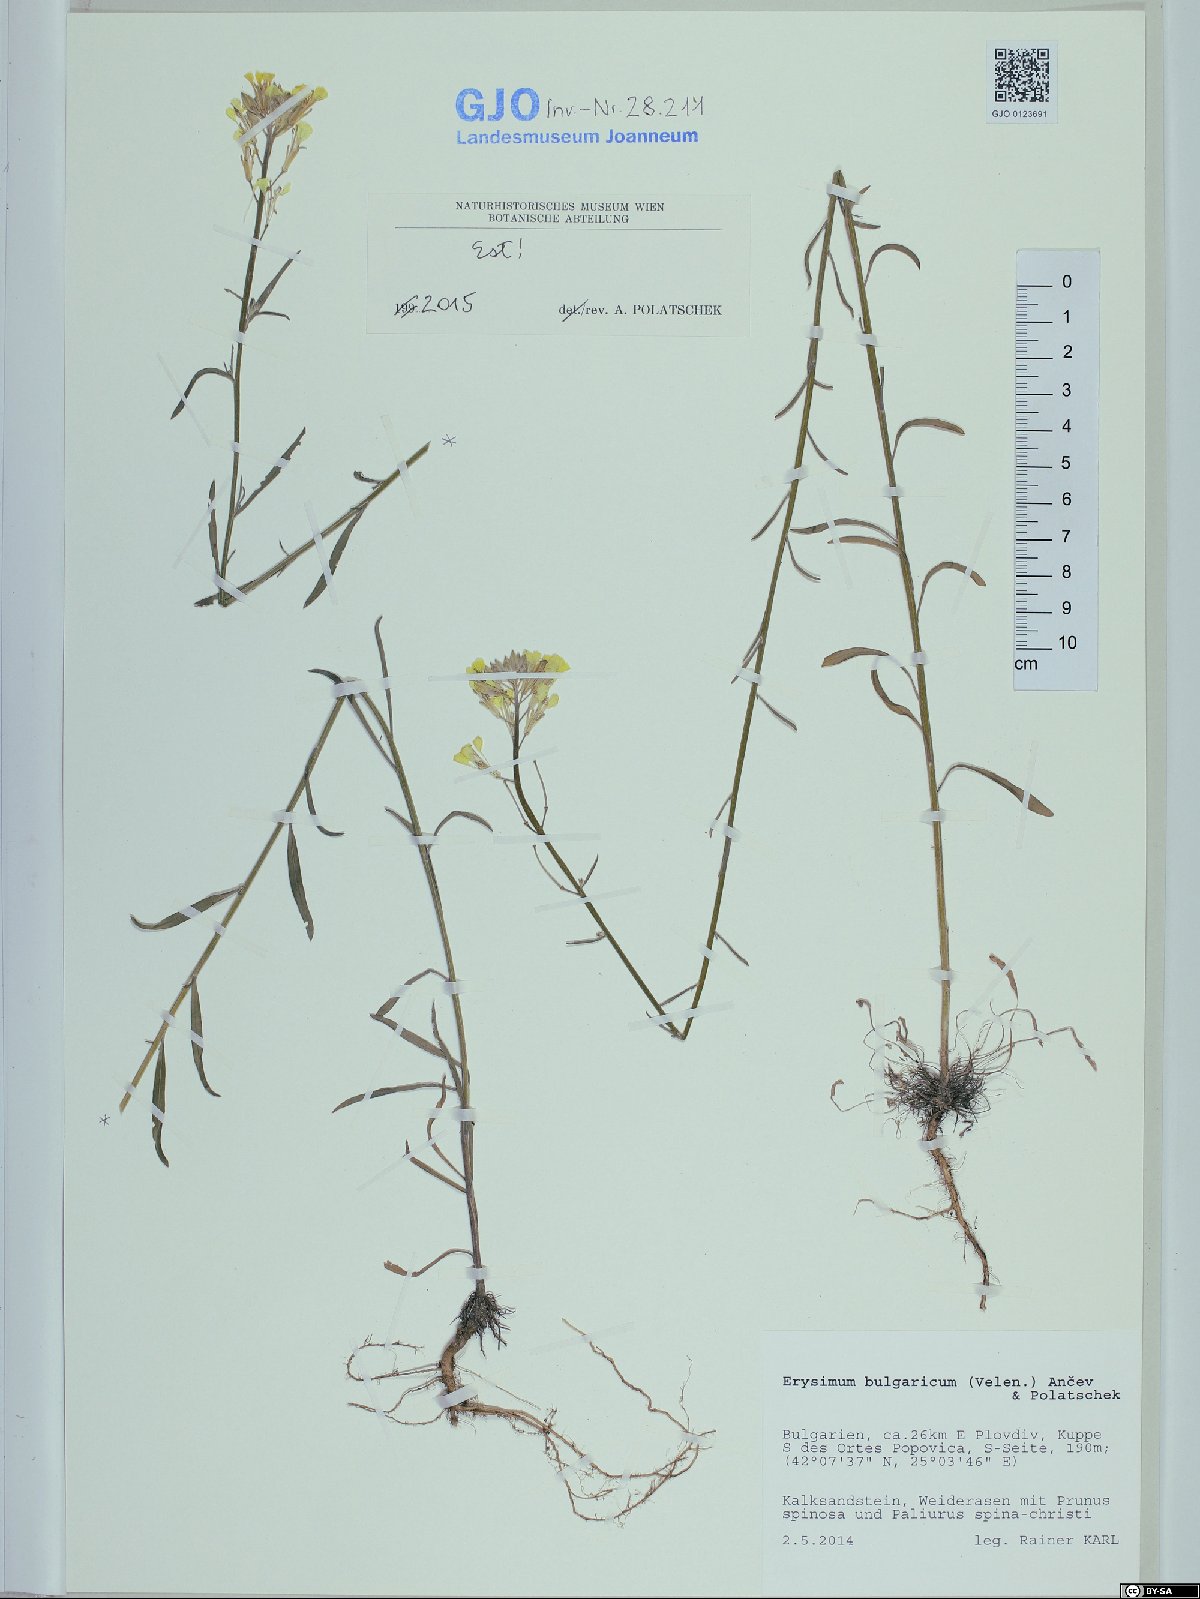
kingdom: Plantae
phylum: Tracheophyta
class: Magnoliopsida
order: Brassicales
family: Brassicaceae
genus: Erysimum
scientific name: Erysimum bulgaricum
